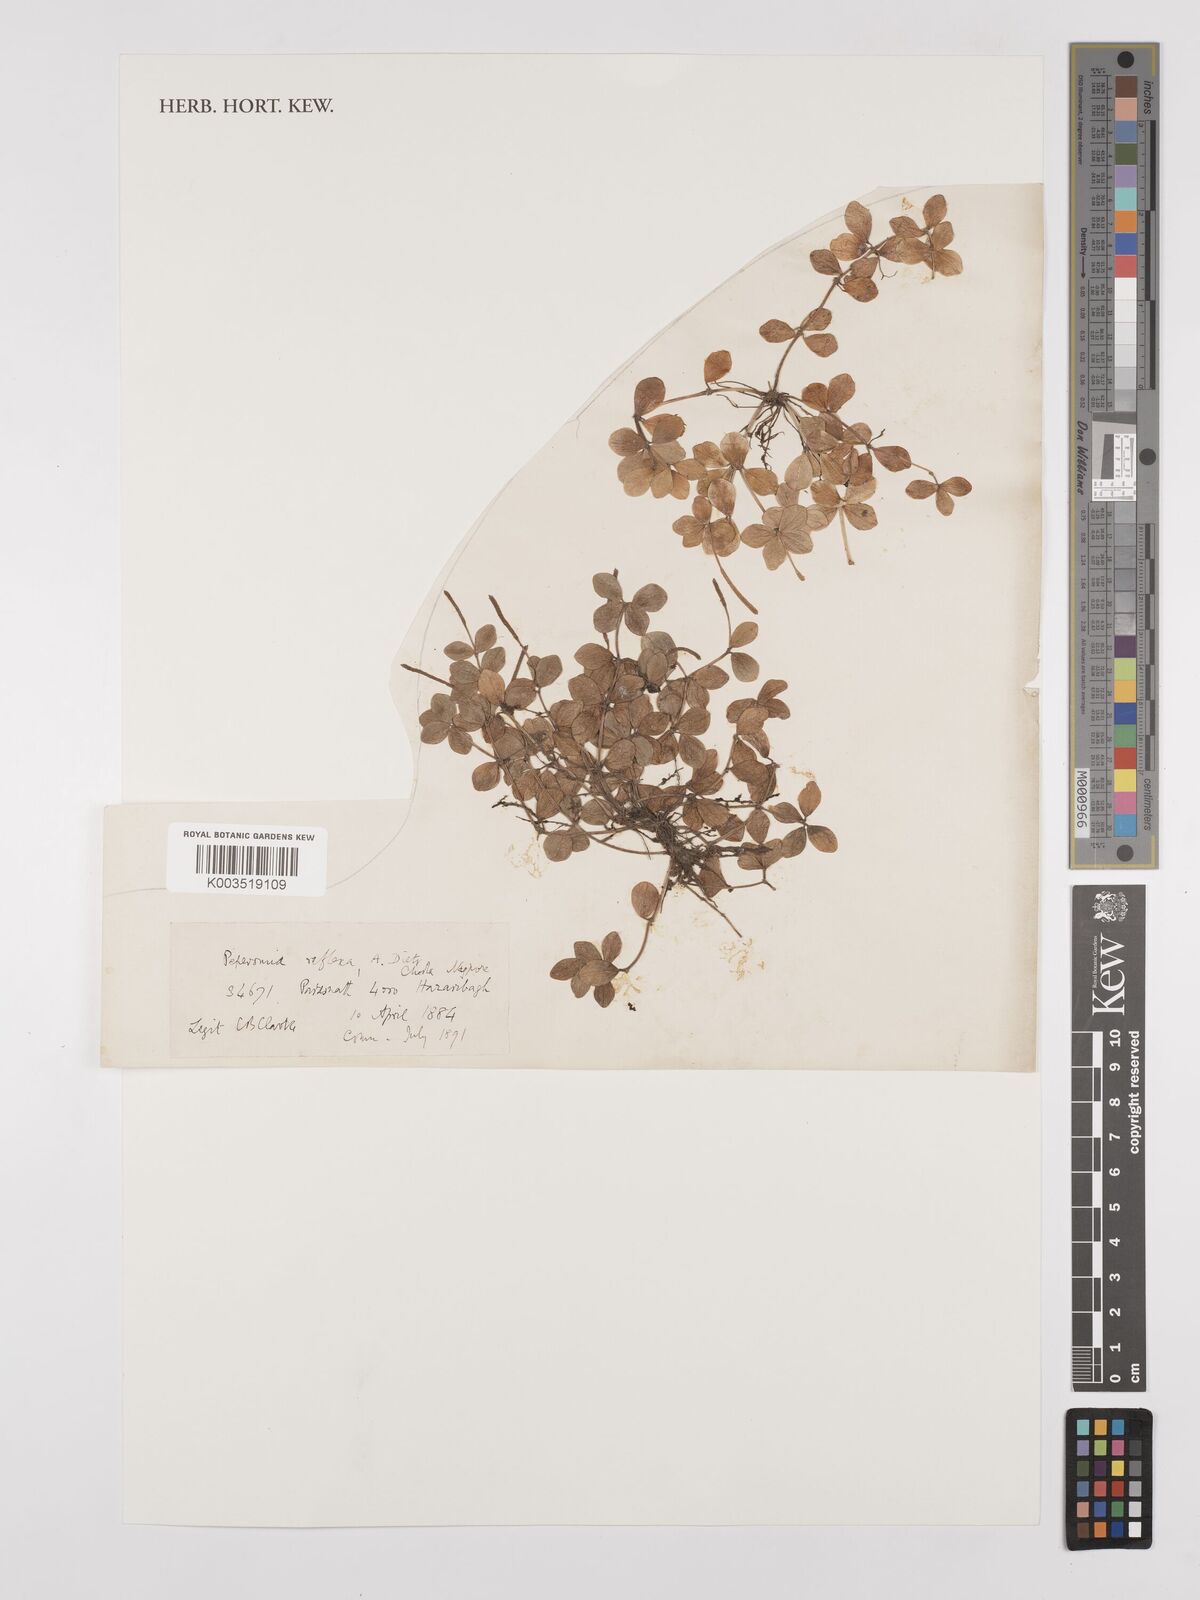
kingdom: Plantae
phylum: Tracheophyta
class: Magnoliopsida
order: Piperales
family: Piperaceae
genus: Peperomia
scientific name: Peperomia tetraphylla
